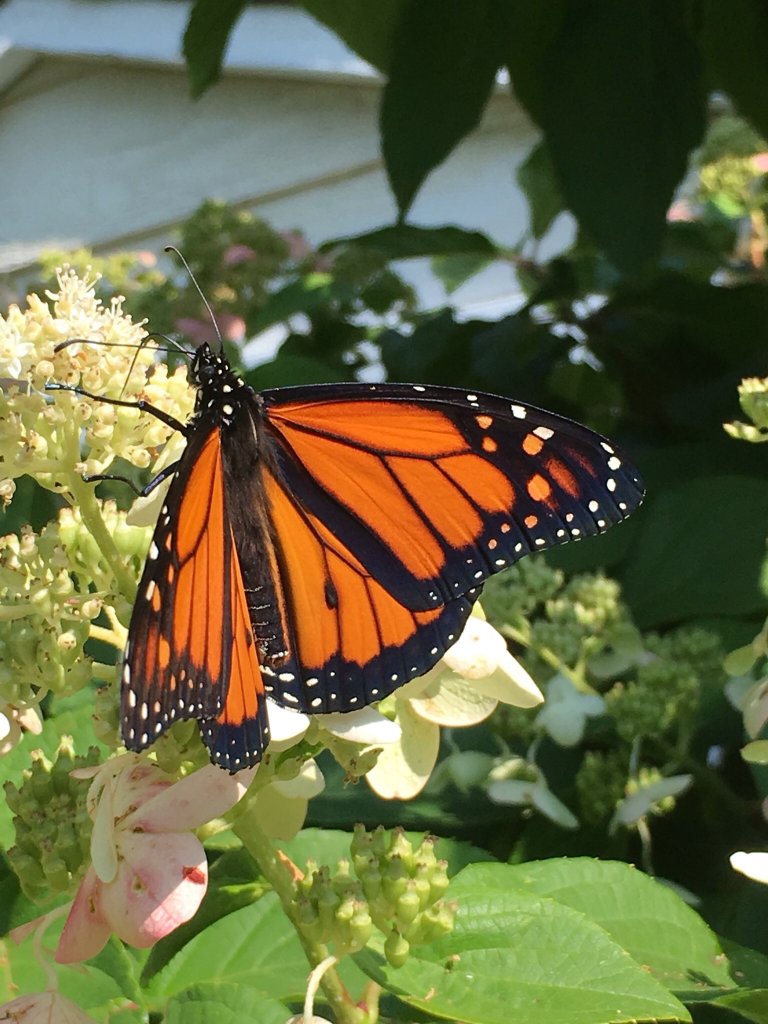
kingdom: Animalia
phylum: Arthropoda
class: Insecta
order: Lepidoptera
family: Nymphalidae
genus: Danaus
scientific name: Danaus plexippus
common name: Monarch
